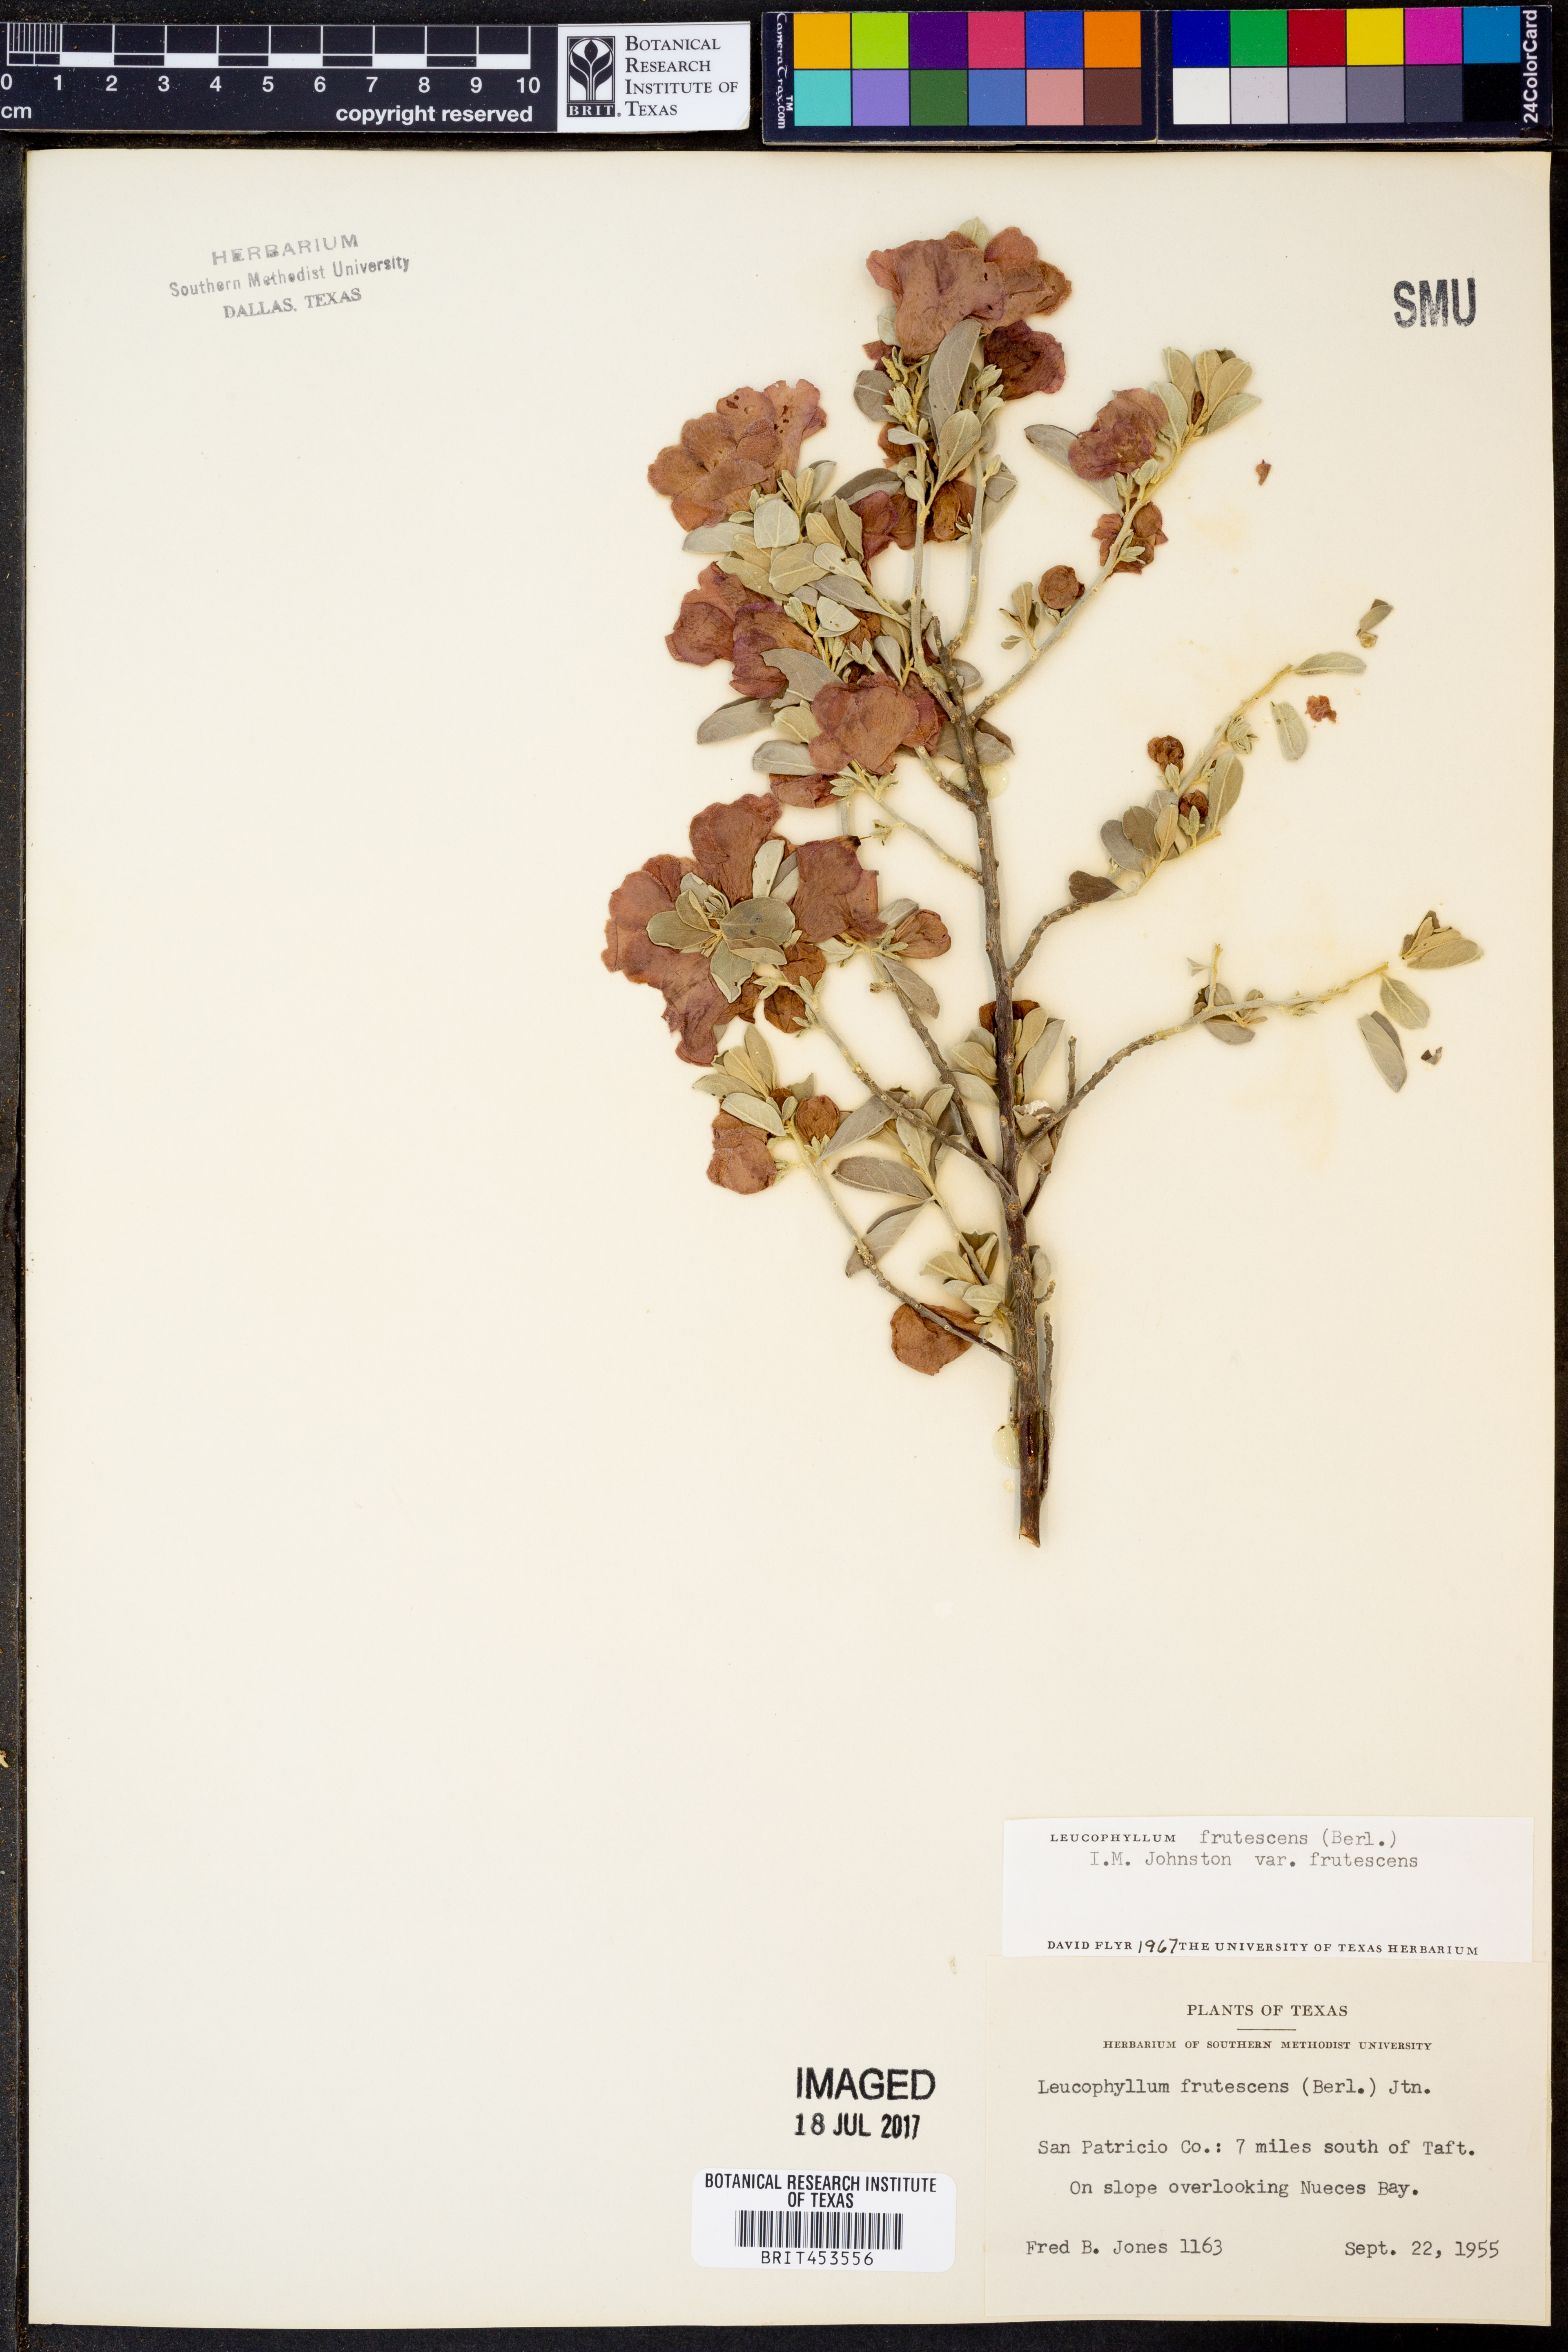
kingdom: Plantae
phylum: Tracheophyta
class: Magnoliopsida
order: Lamiales
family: Scrophulariaceae
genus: Leucophyllum
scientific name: Leucophyllum frutescens
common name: Texas silverleaf
